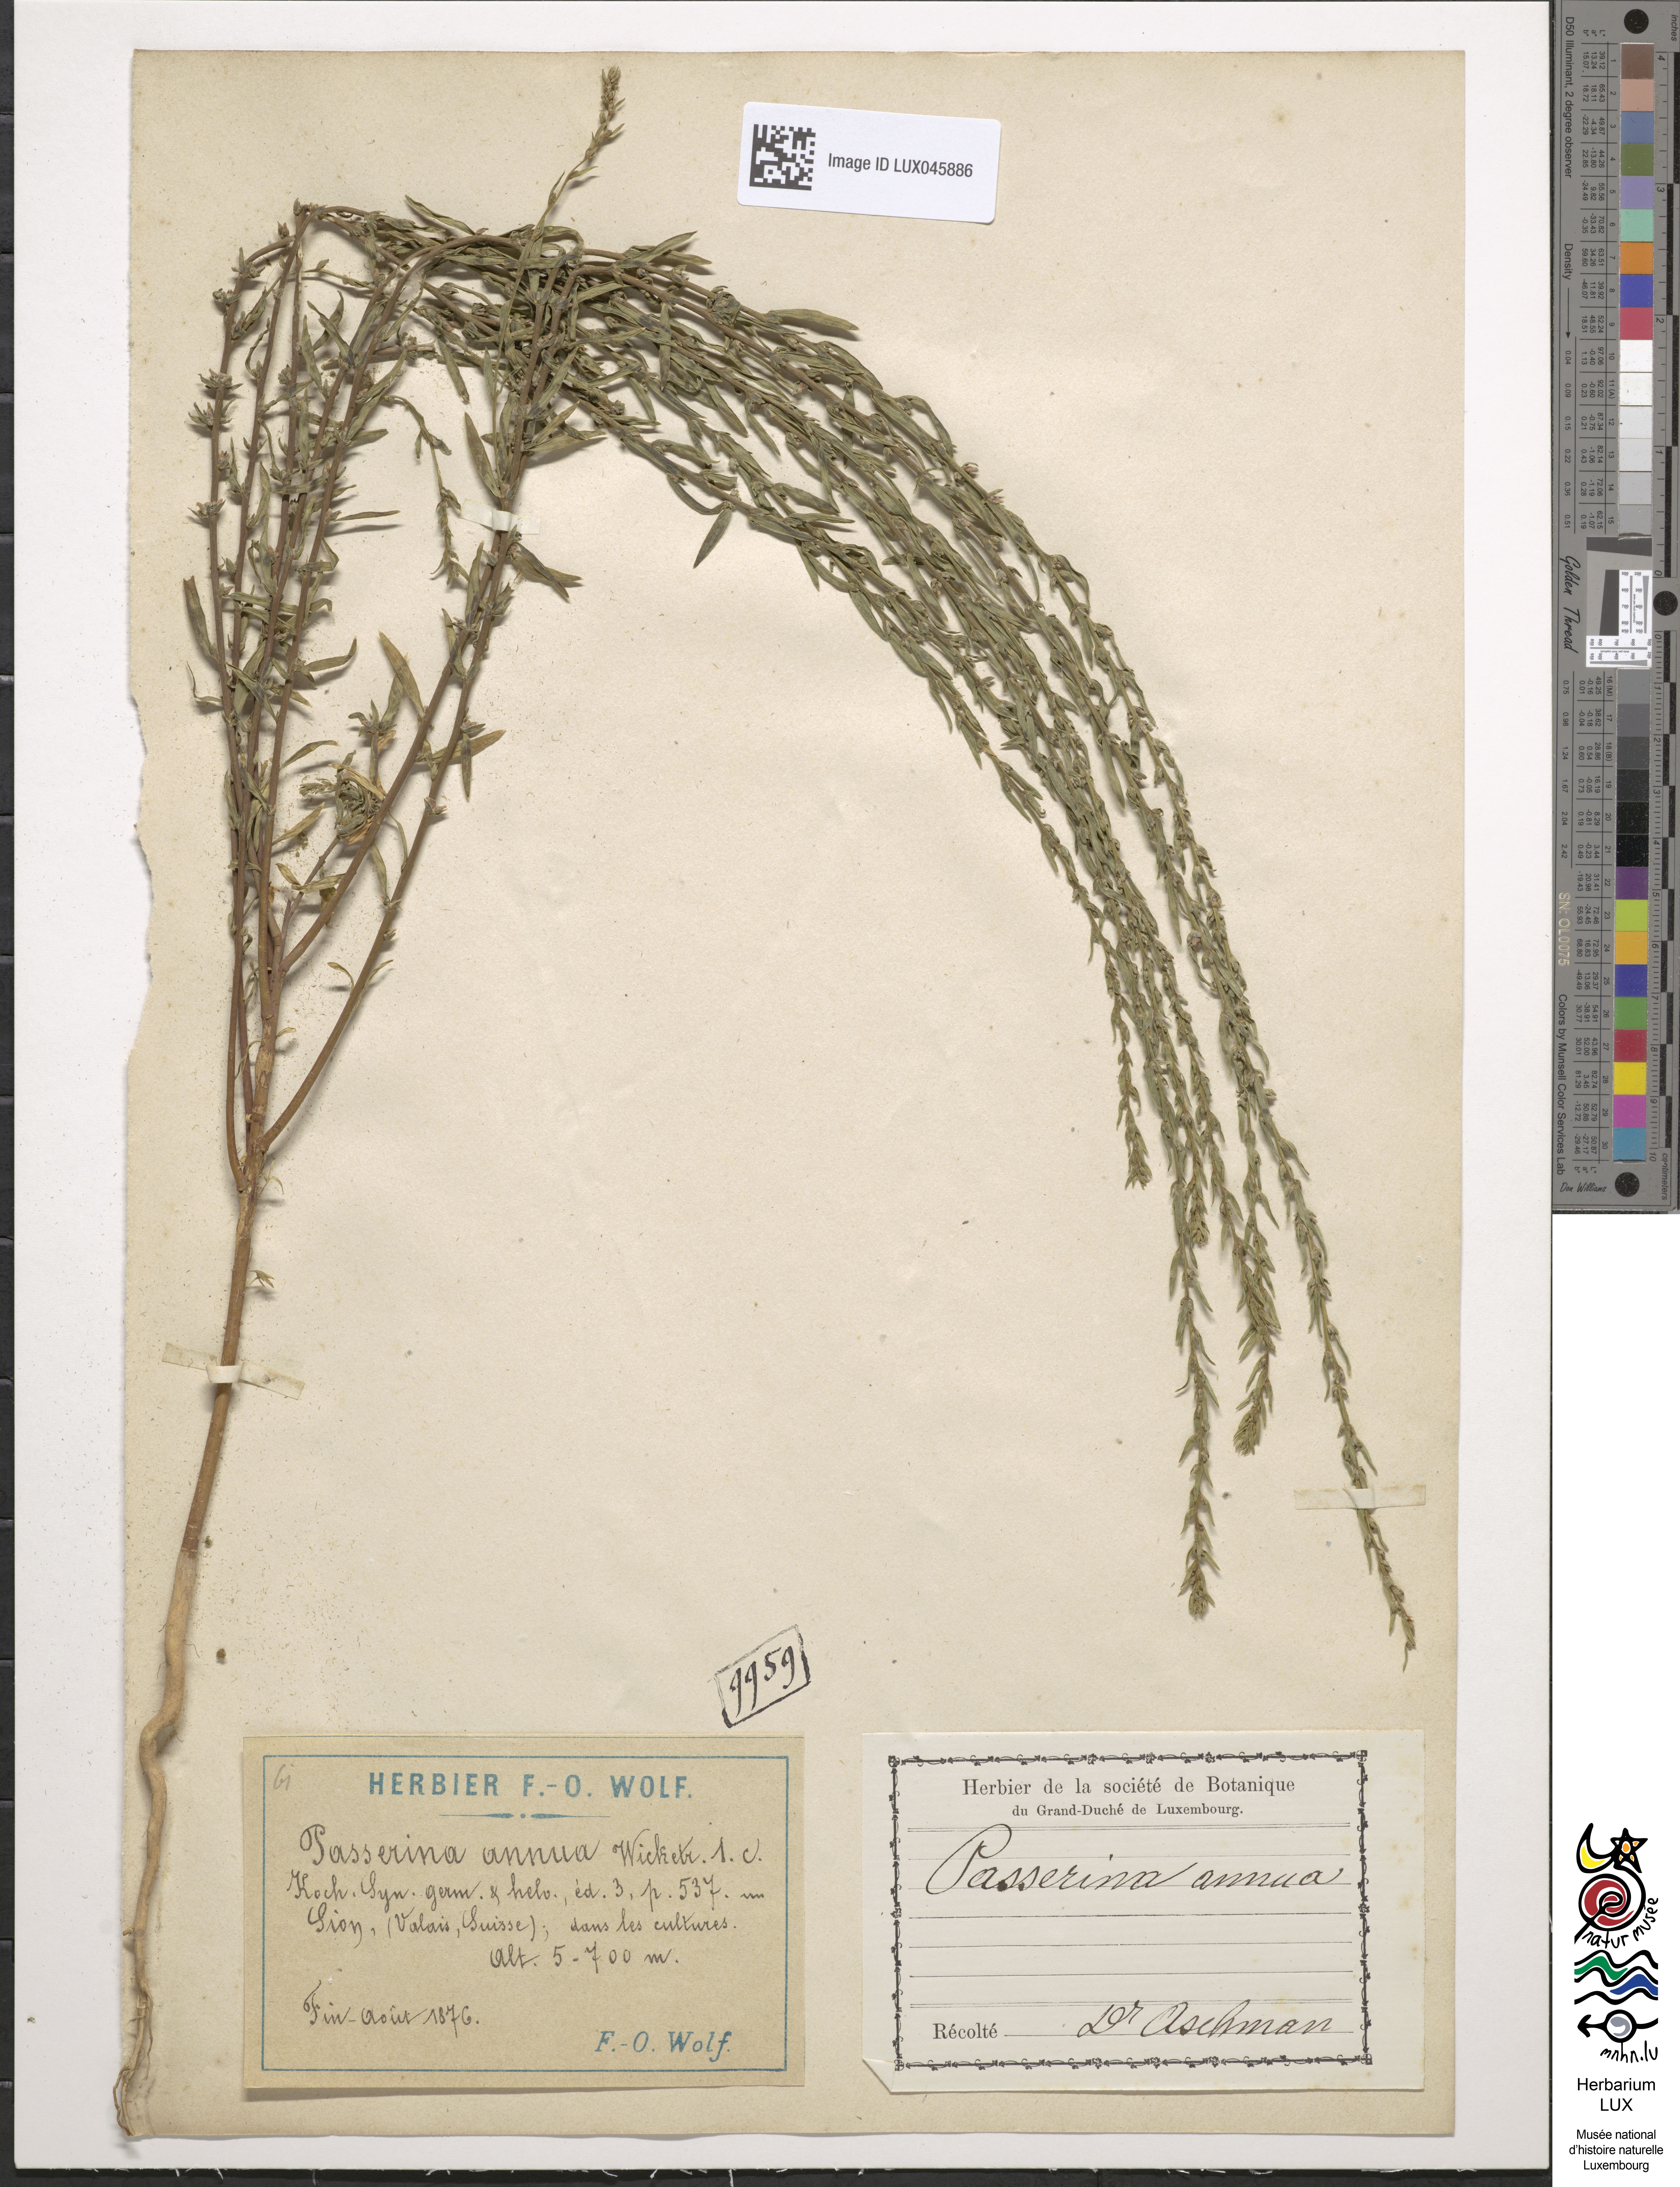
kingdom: Plantae
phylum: Tracheophyta
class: Magnoliopsida
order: Malvales
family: Thymelaeaceae
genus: Thymelaea
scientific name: Thymelaea passerina
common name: Annual thymelaea
